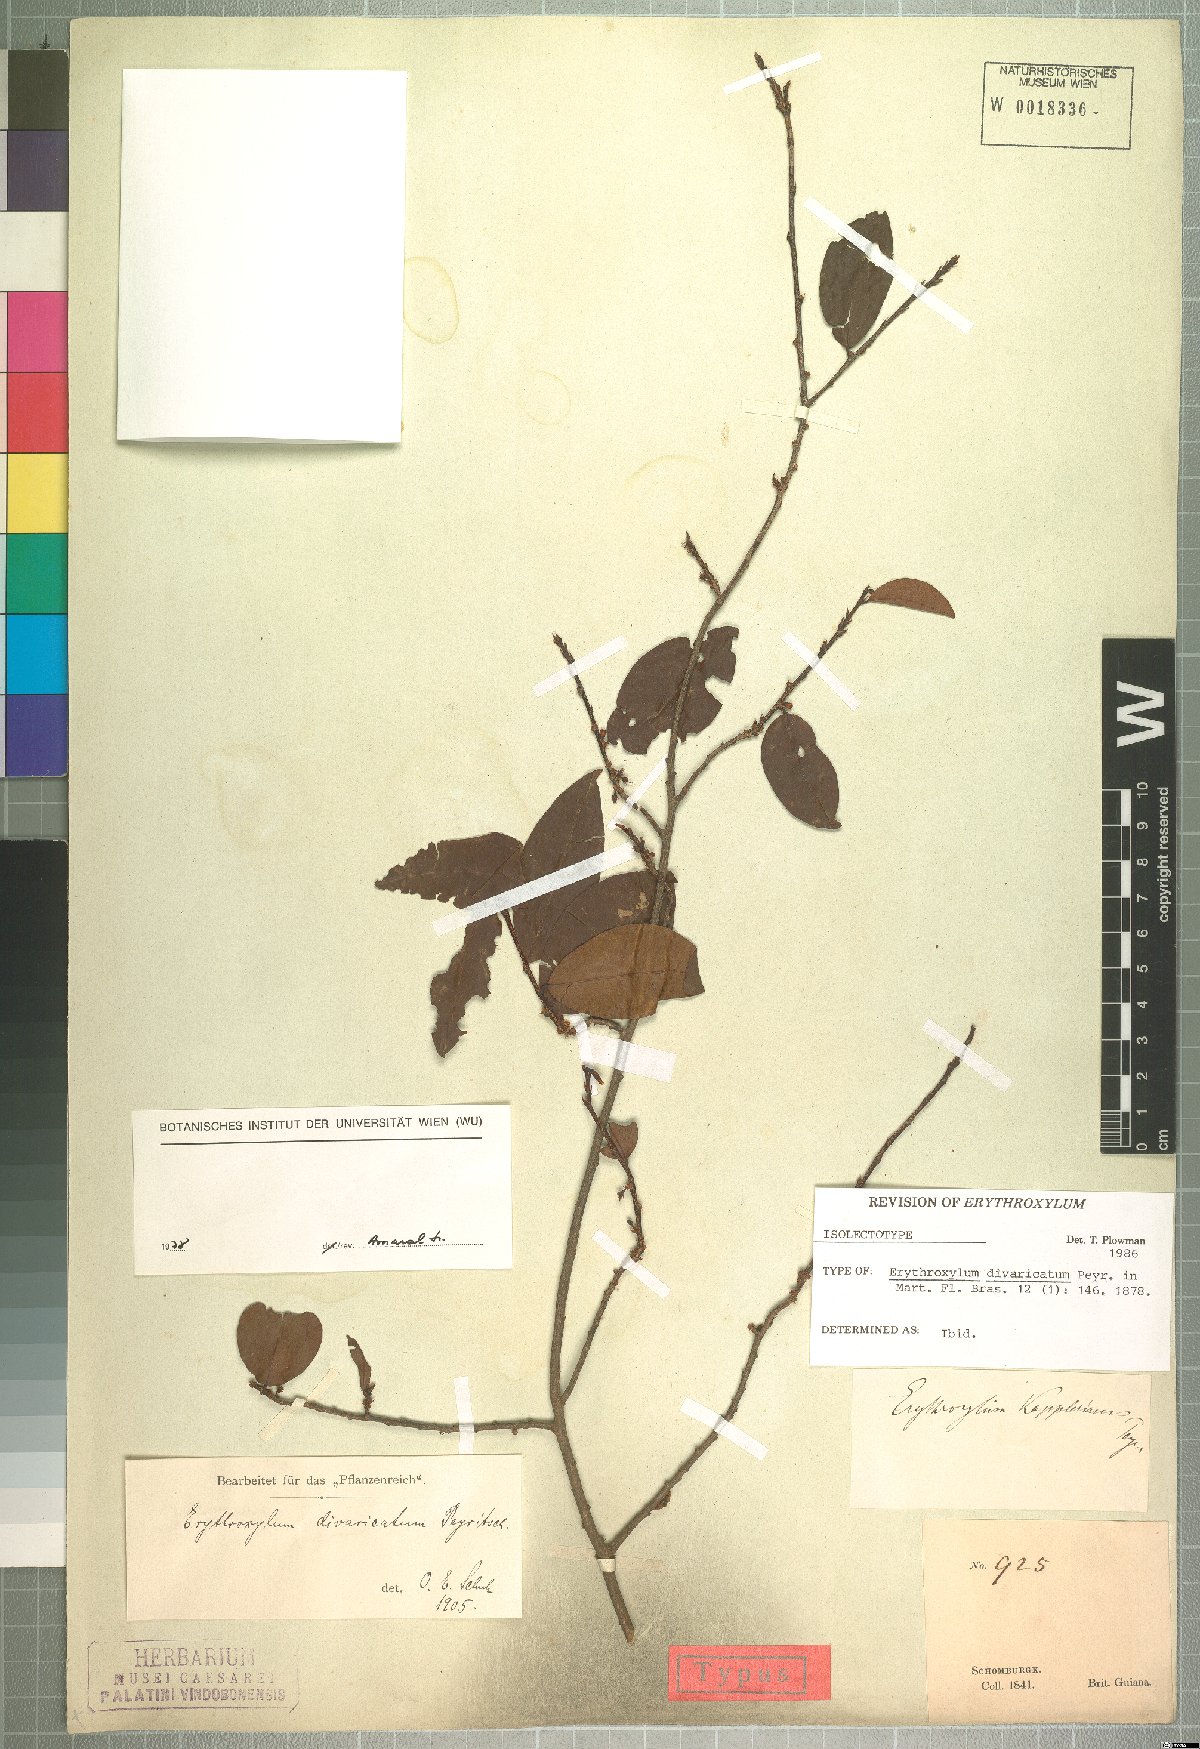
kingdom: Plantae
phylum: Tracheophyta
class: Magnoliopsida
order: Malpighiales
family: Erythroxylaceae
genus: Erythroxylum
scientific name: Erythroxylum divaricatum
